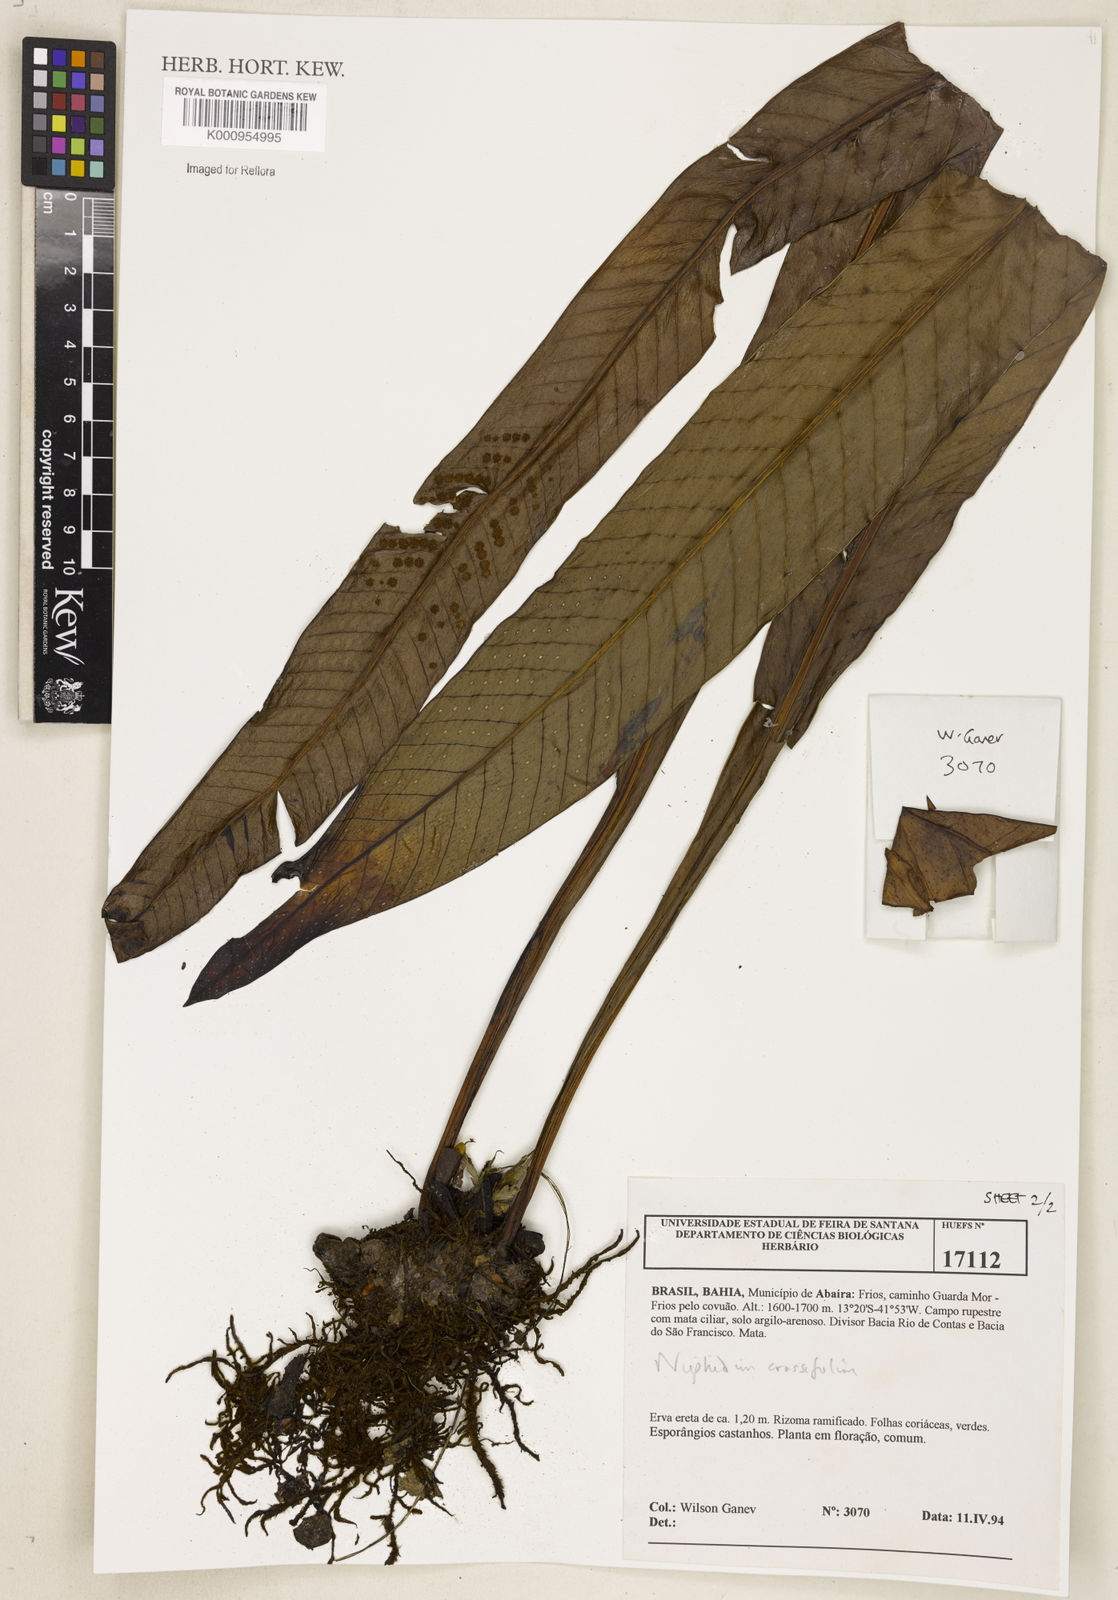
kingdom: Plantae
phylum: Tracheophyta
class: Polypodiopsida
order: Polypodiales
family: Polypodiaceae
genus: Niphidium
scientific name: Niphidium crassifolium
